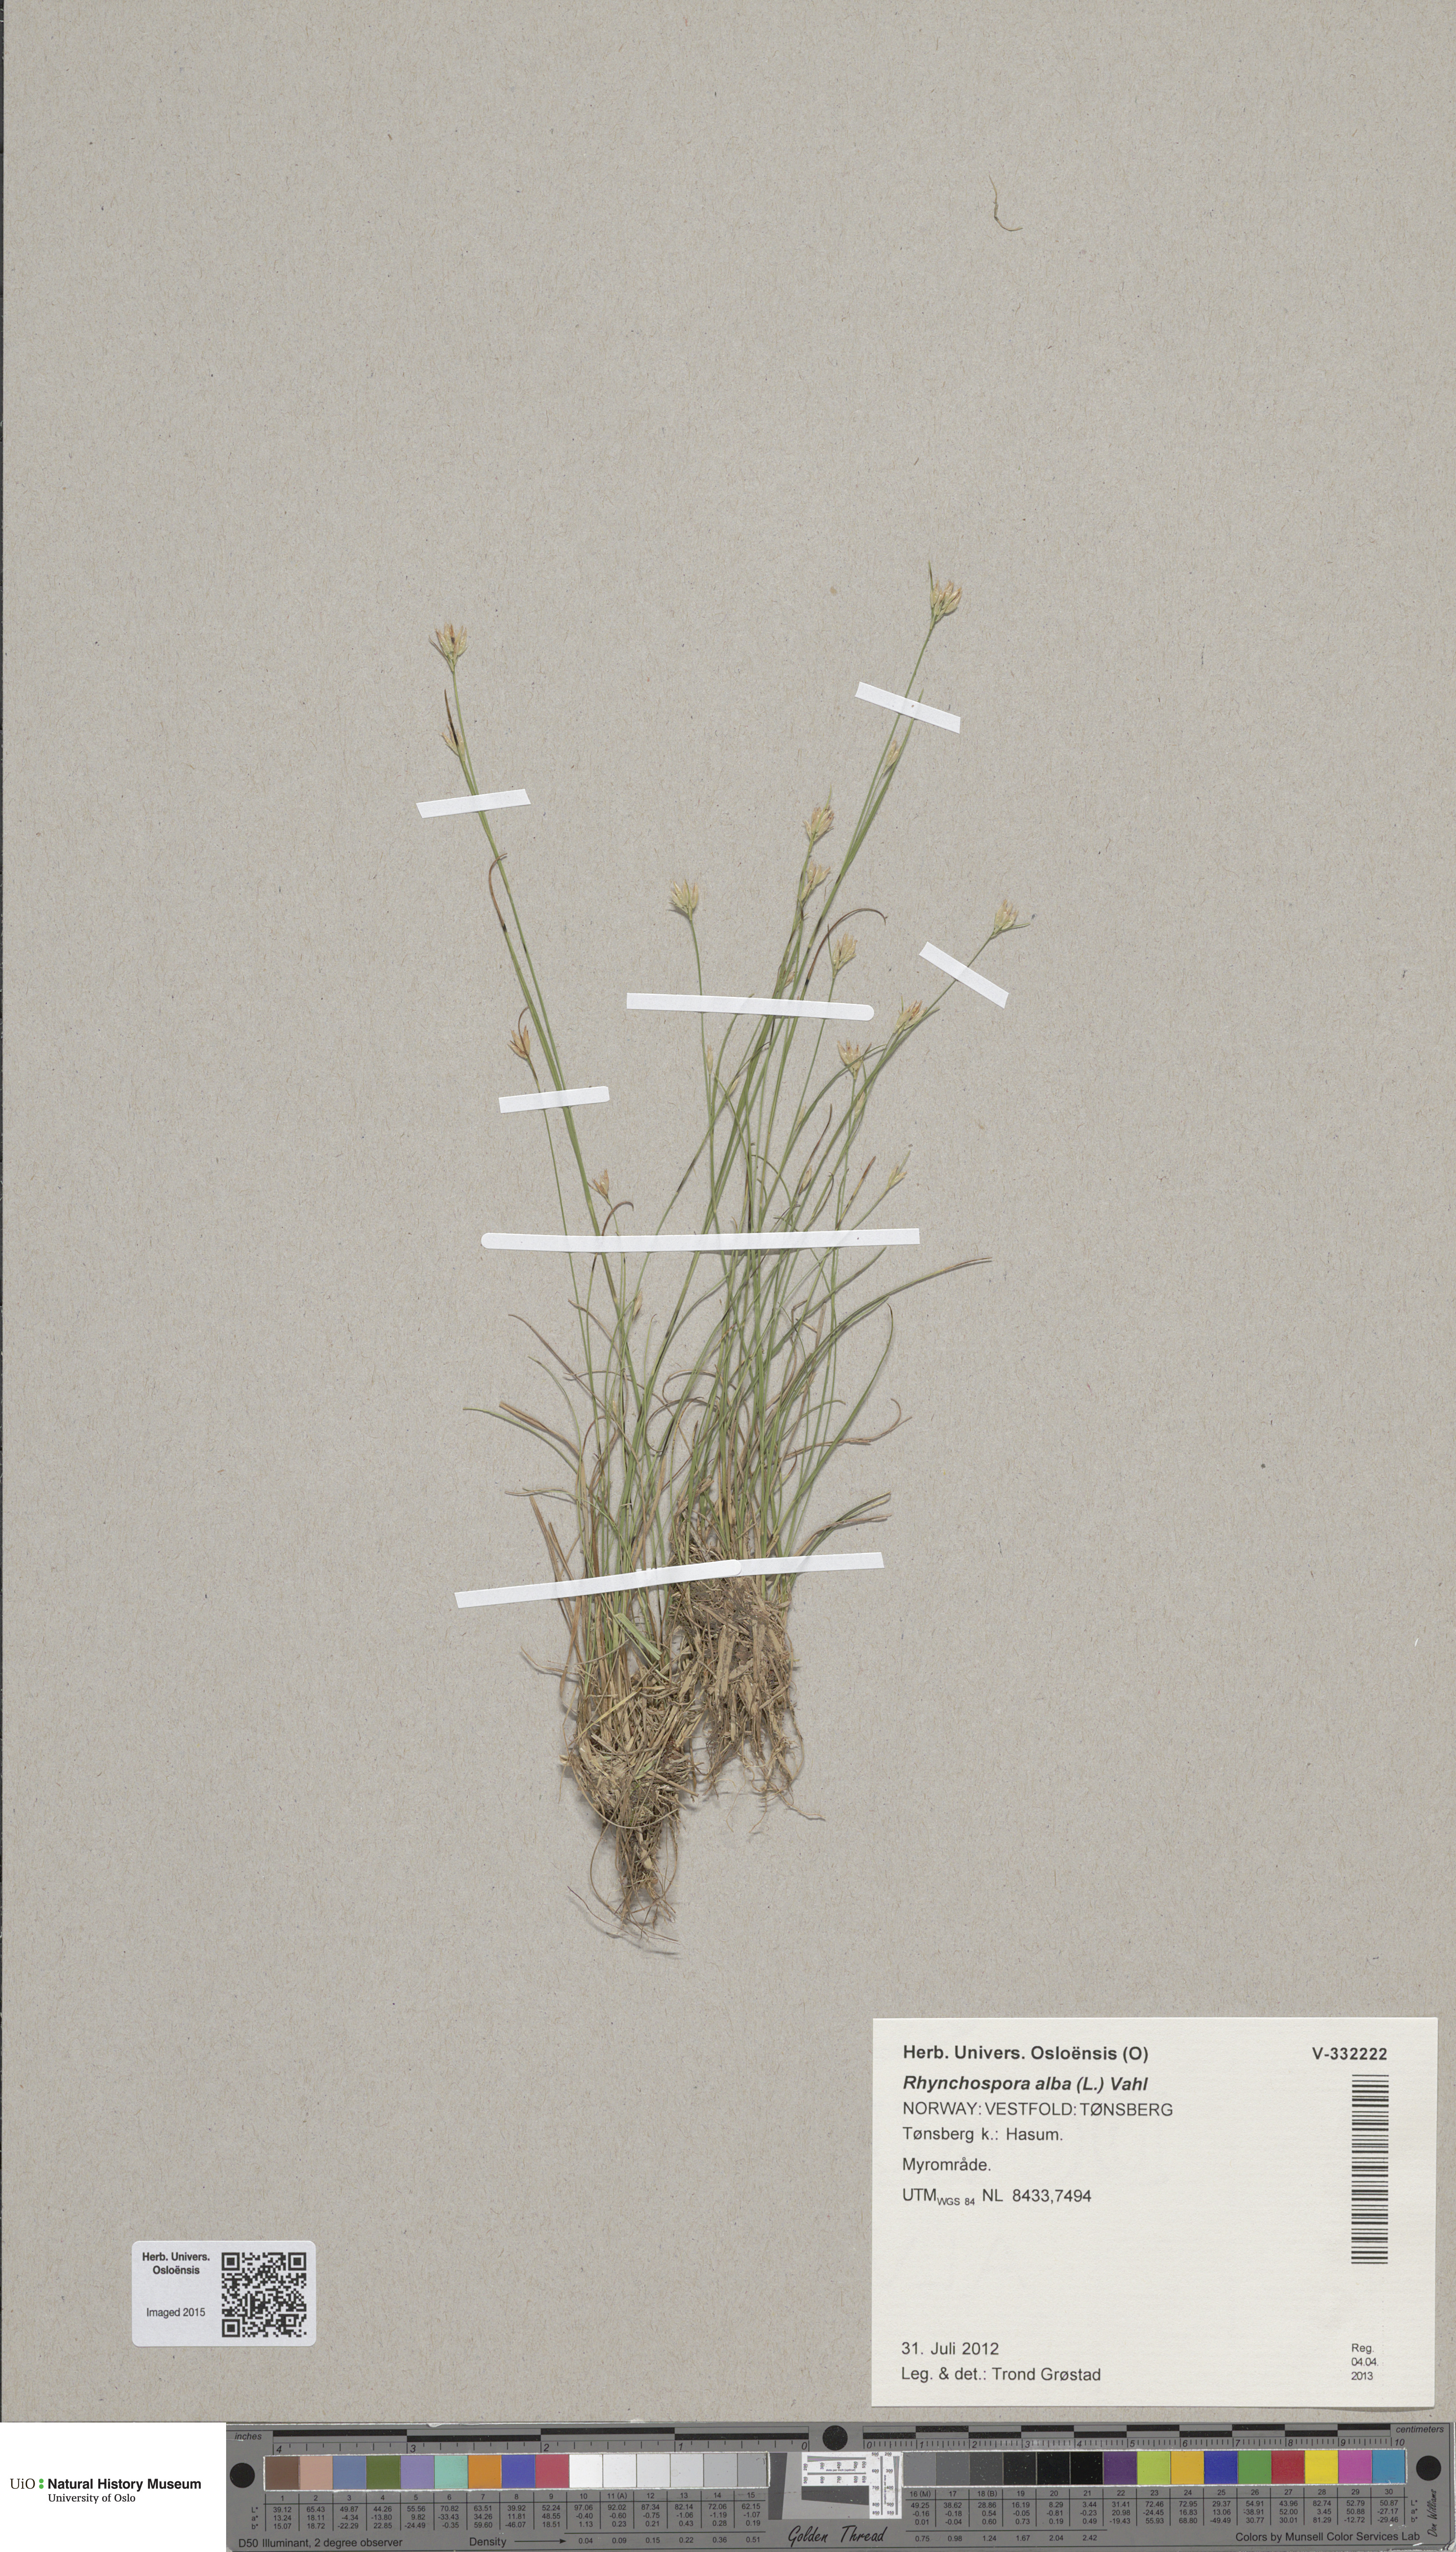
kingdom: Plantae
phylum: Tracheophyta
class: Liliopsida
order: Poales
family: Cyperaceae
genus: Rhynchospora
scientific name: Rhynchospora alba
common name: White beak-sedge
